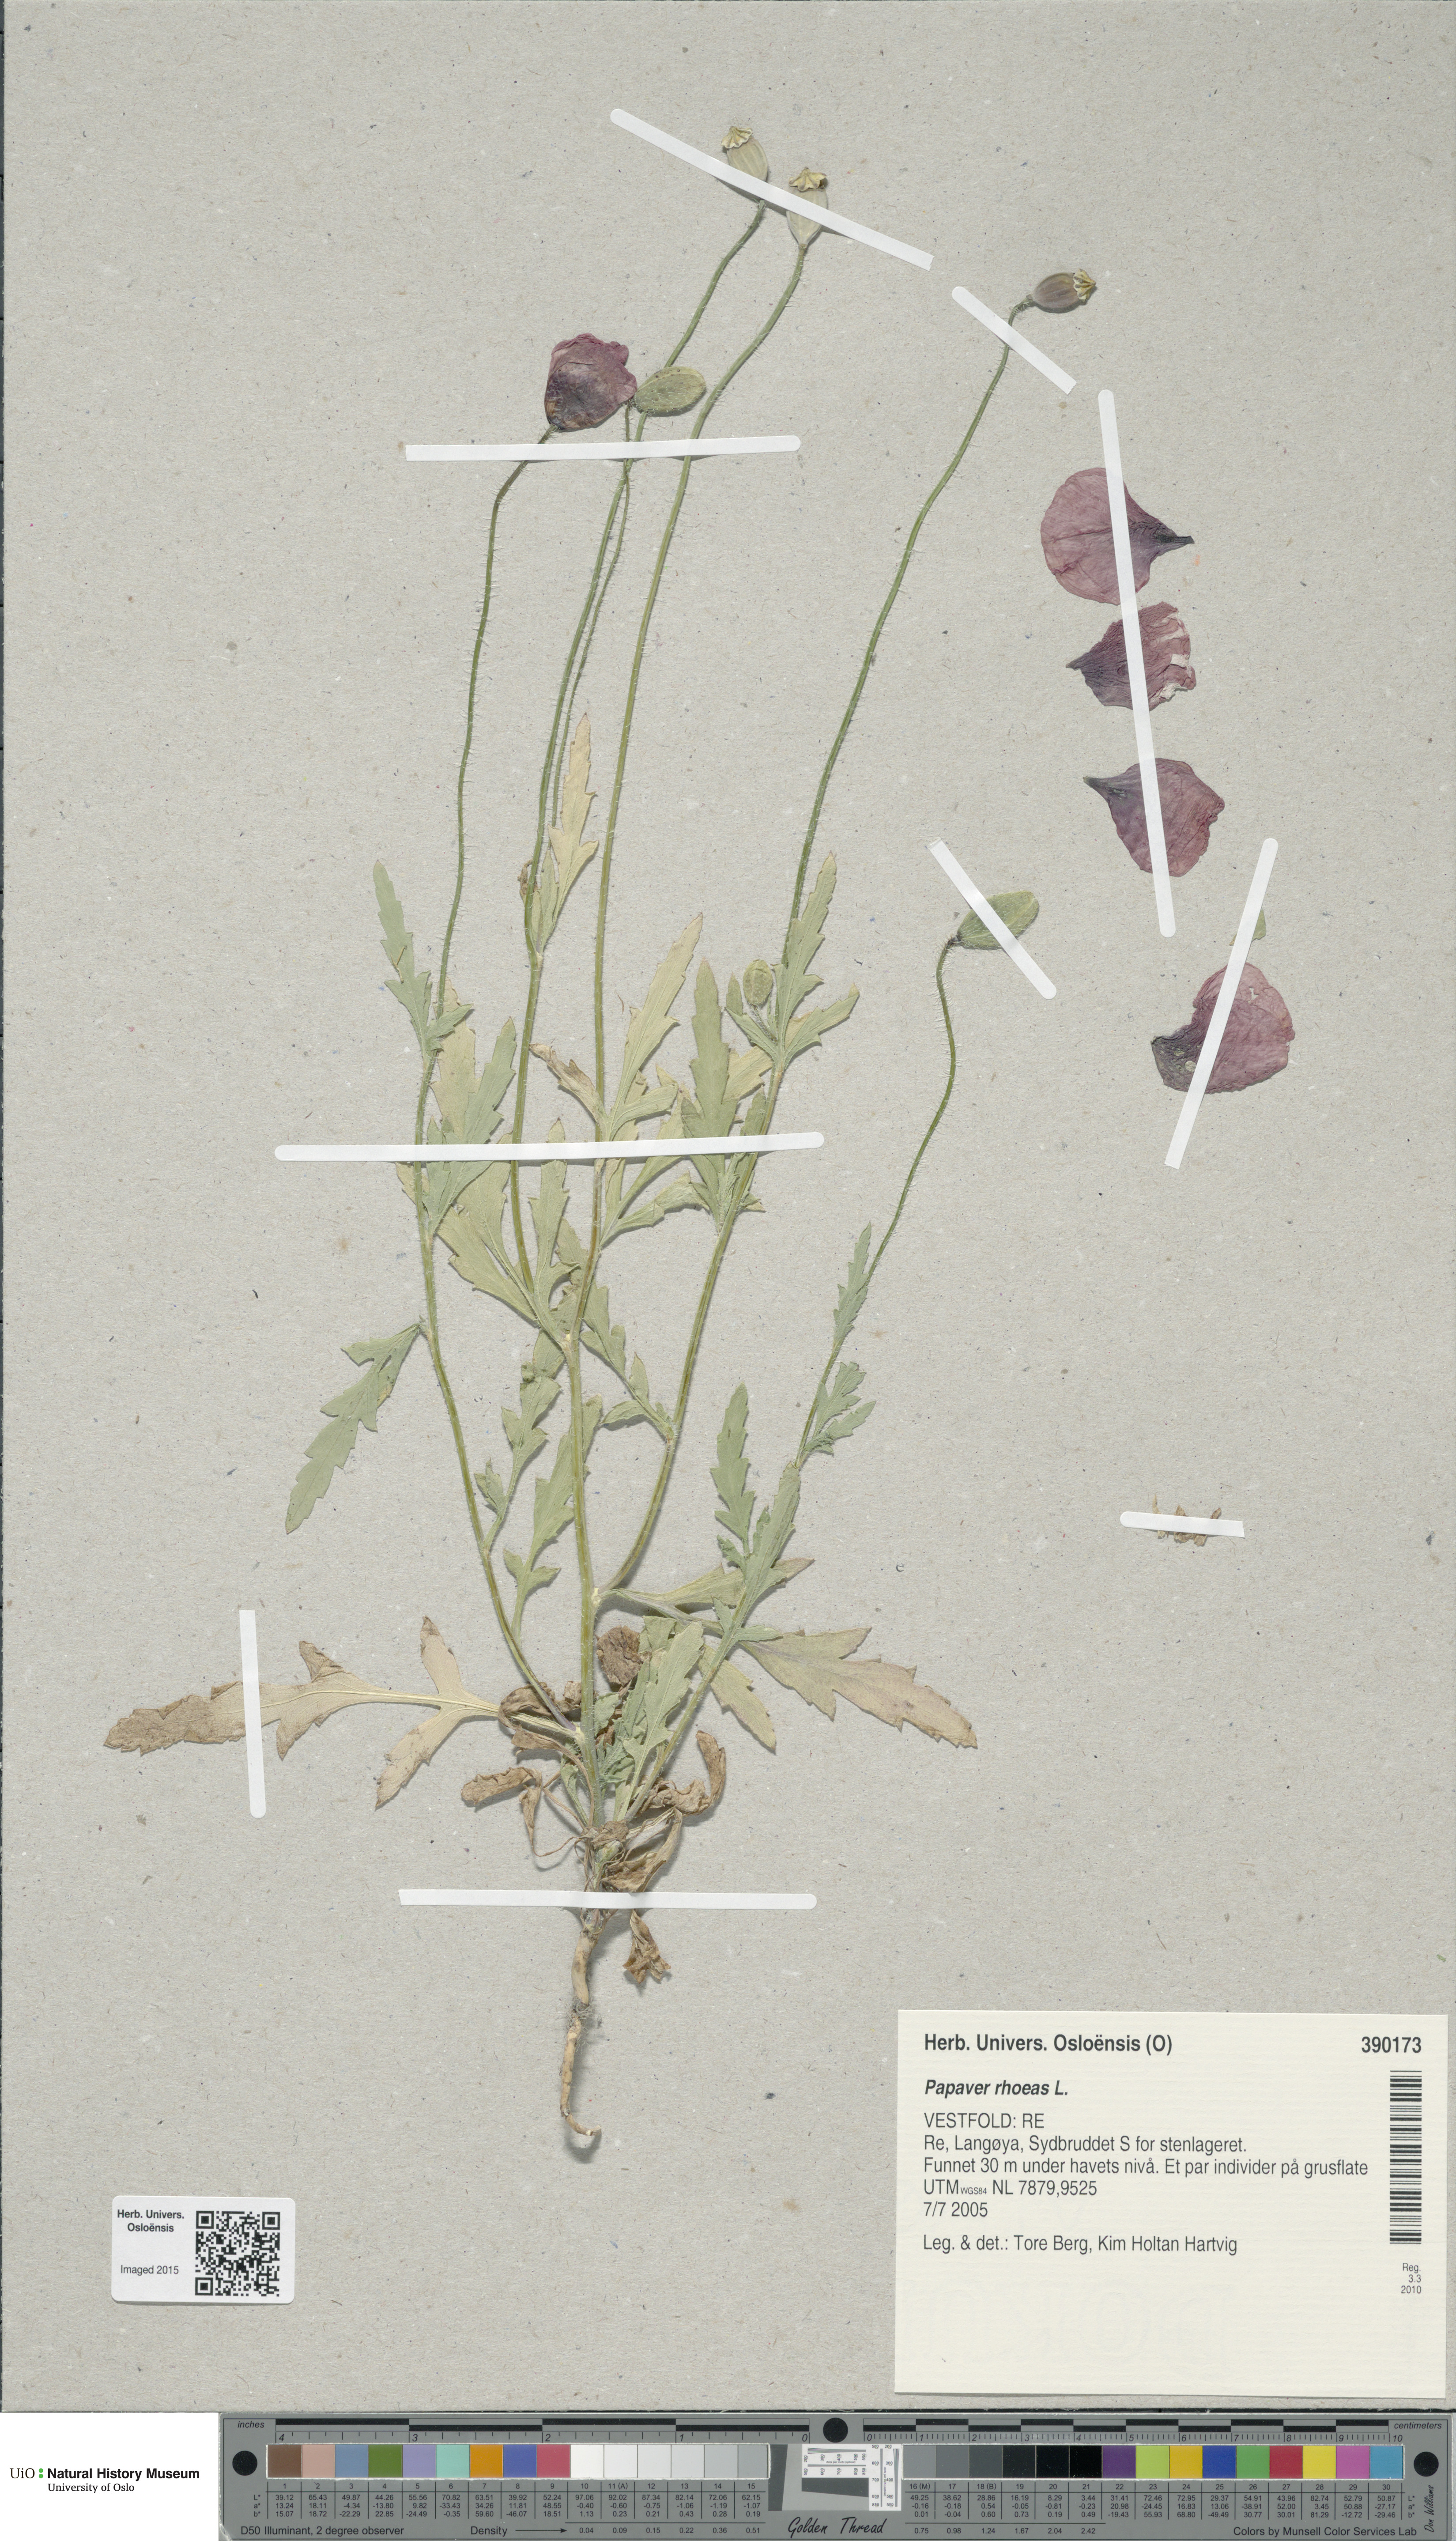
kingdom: Plantae
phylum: Tracheophyta
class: Magnoliopsida
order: Ranunculales
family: Papaveraceae
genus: Papaver
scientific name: Papaver rhoeas
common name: Corn poppy
